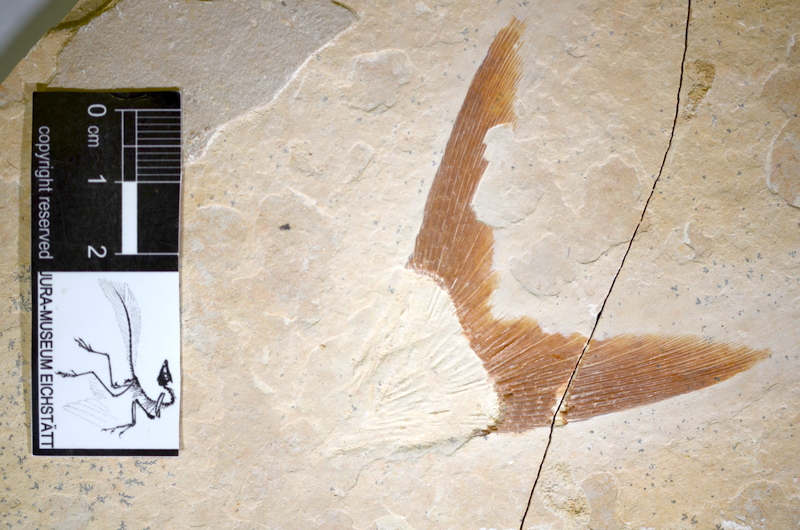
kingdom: Animalia
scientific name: Animalia
